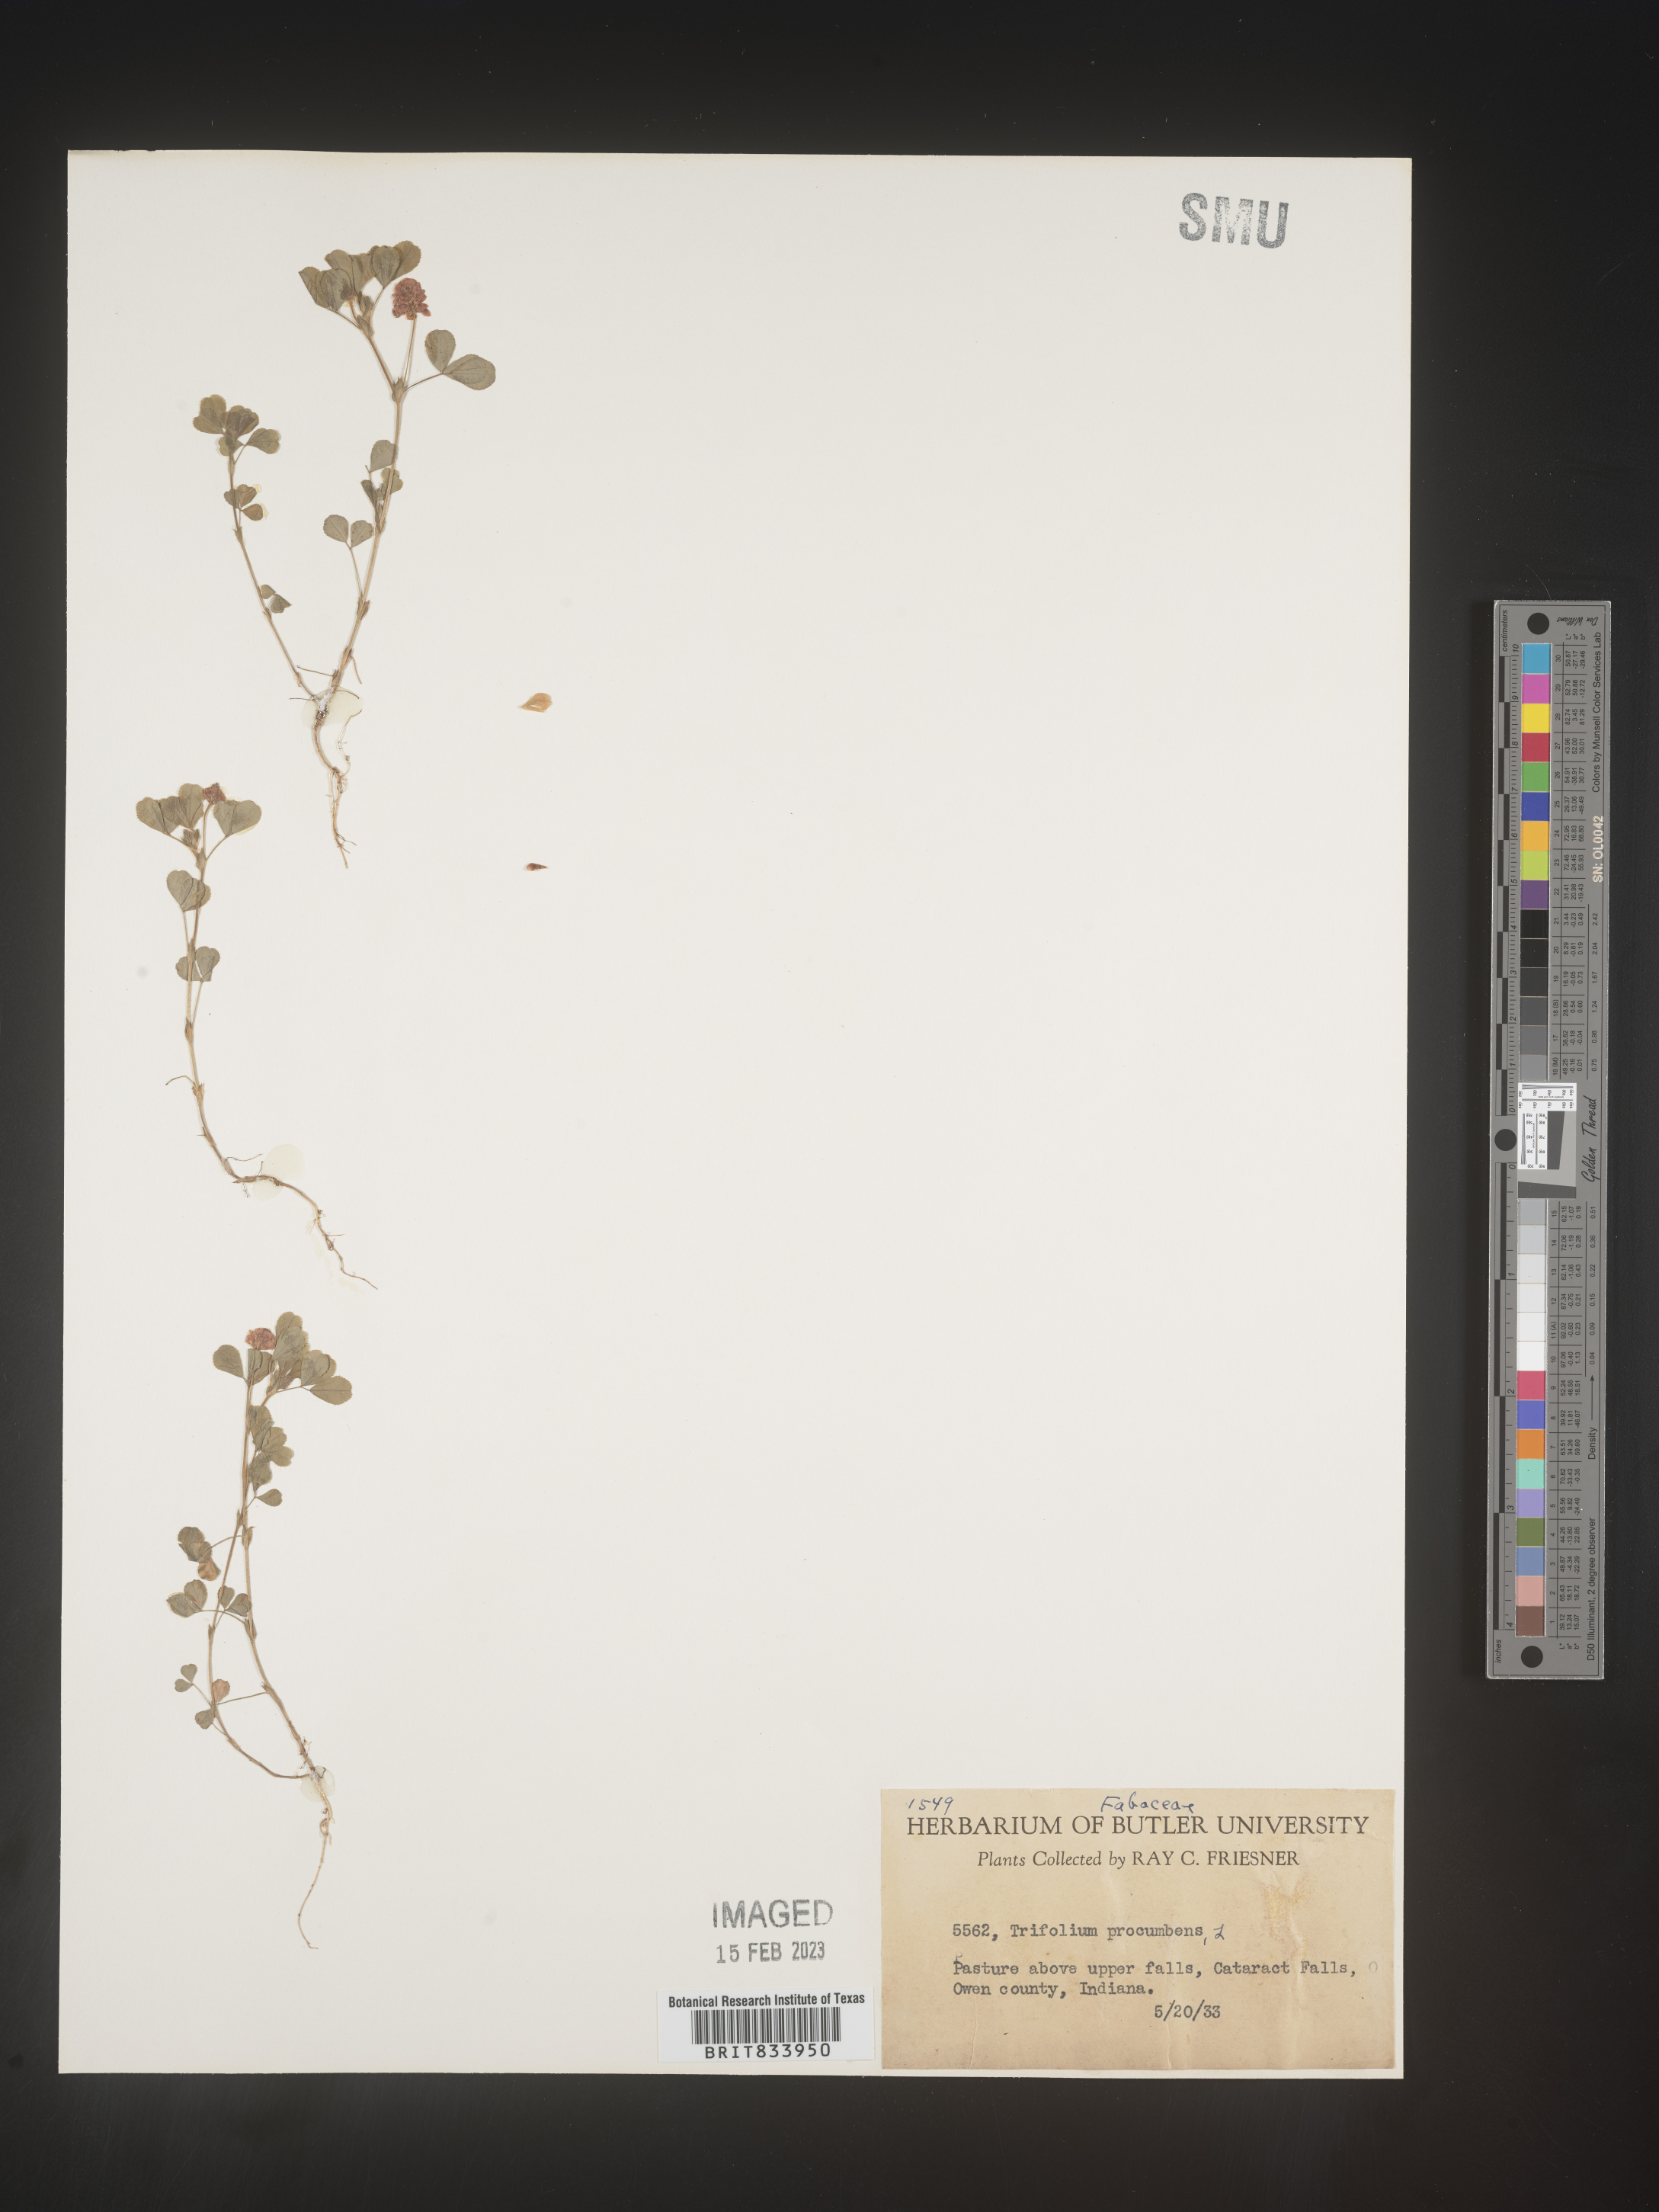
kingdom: Plantae
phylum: Tracheophyta
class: Magnoliopsida
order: Fabales
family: Fabaceae
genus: Trifolium
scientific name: Trifolium campestre
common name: Field clover
